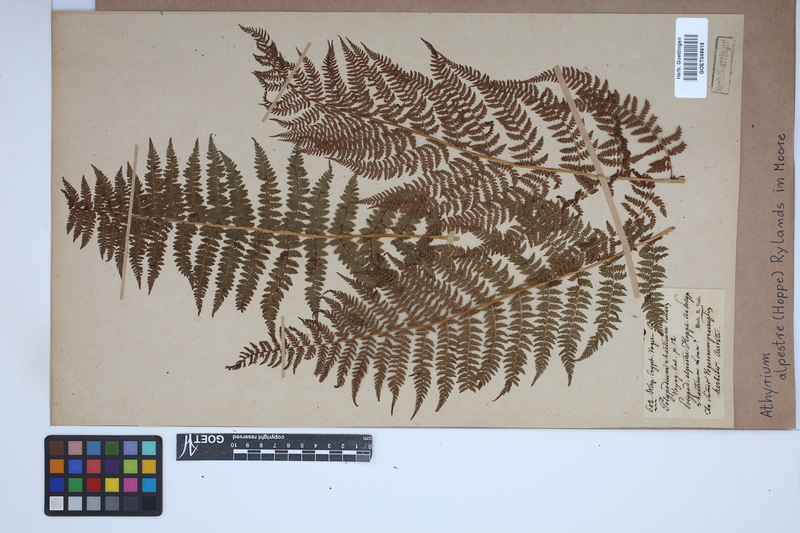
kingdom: Plantae
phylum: Tracheophyta
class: Polypodiopsida
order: Polypodiales
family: Athyriaceae
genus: Pseudathyrium
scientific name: Pseudathyrium alpestre
